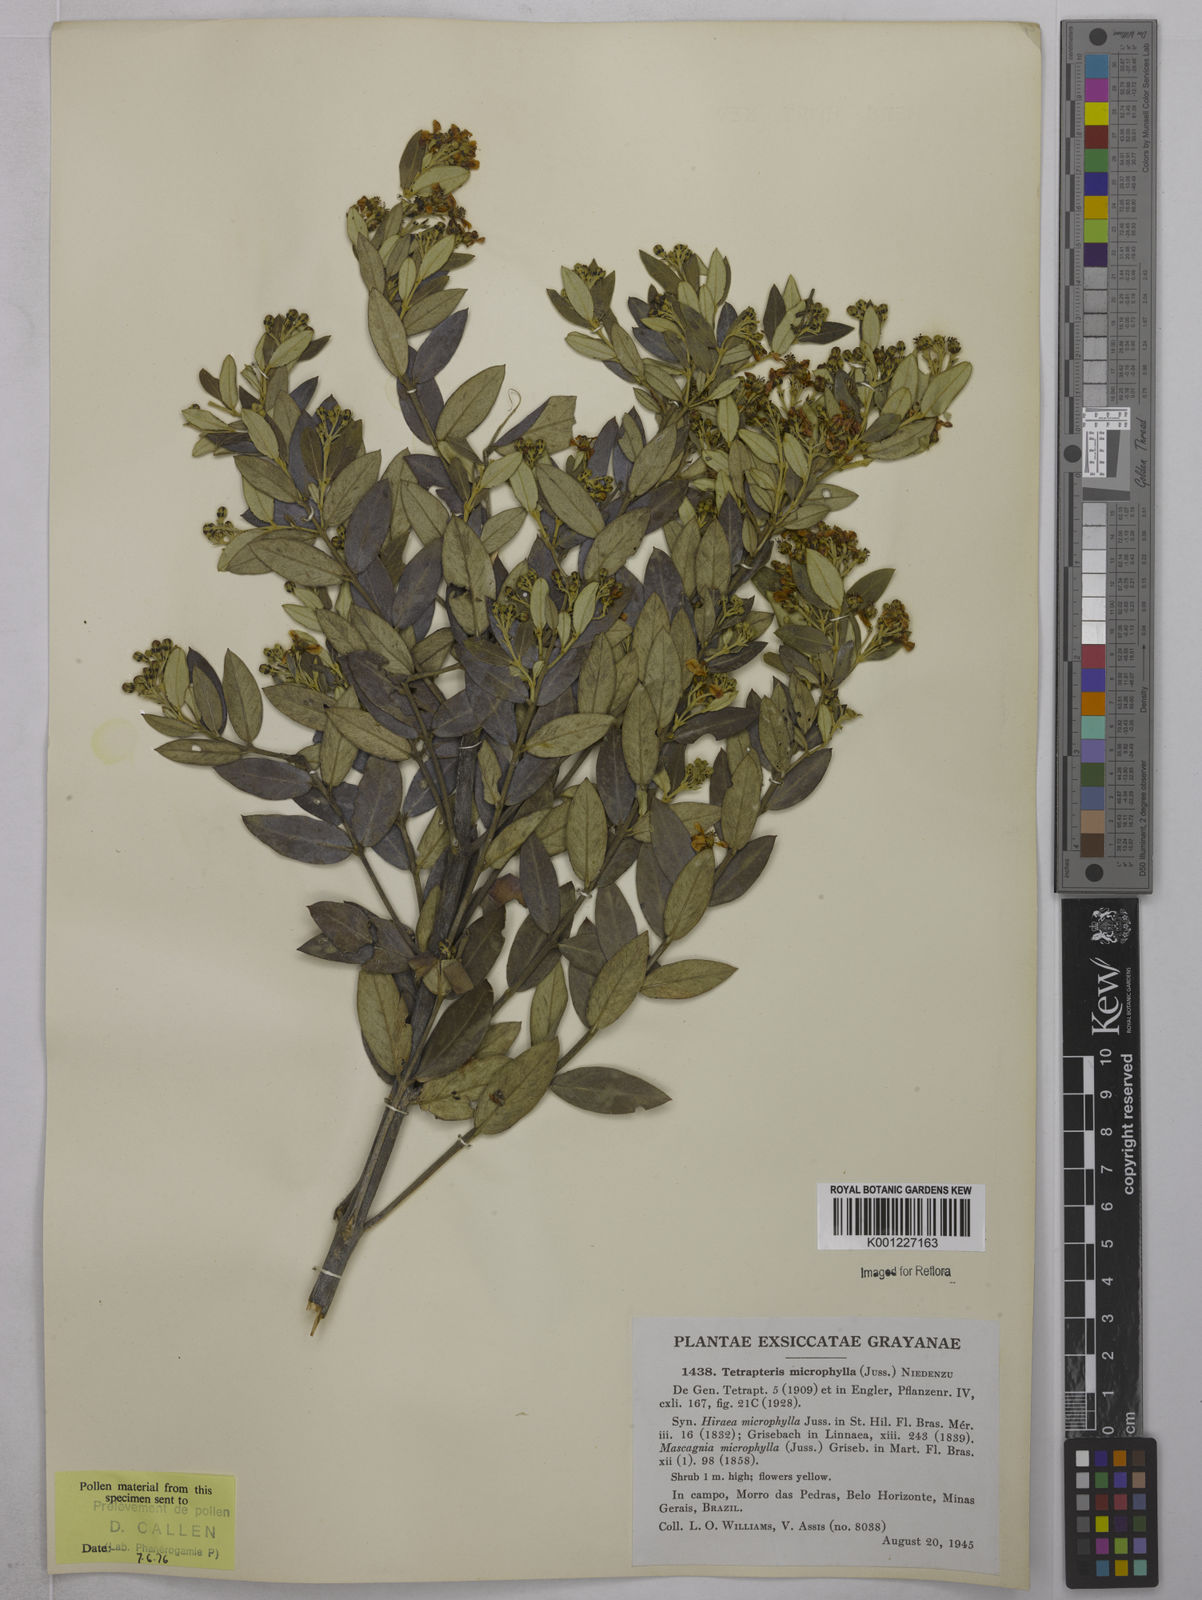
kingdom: Plantae
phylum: Tracheophyta
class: Magnoliopsida
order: Malpighiales
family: Malpighiaceae
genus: Glicophyllum
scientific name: Glicophyllum microphyllum
